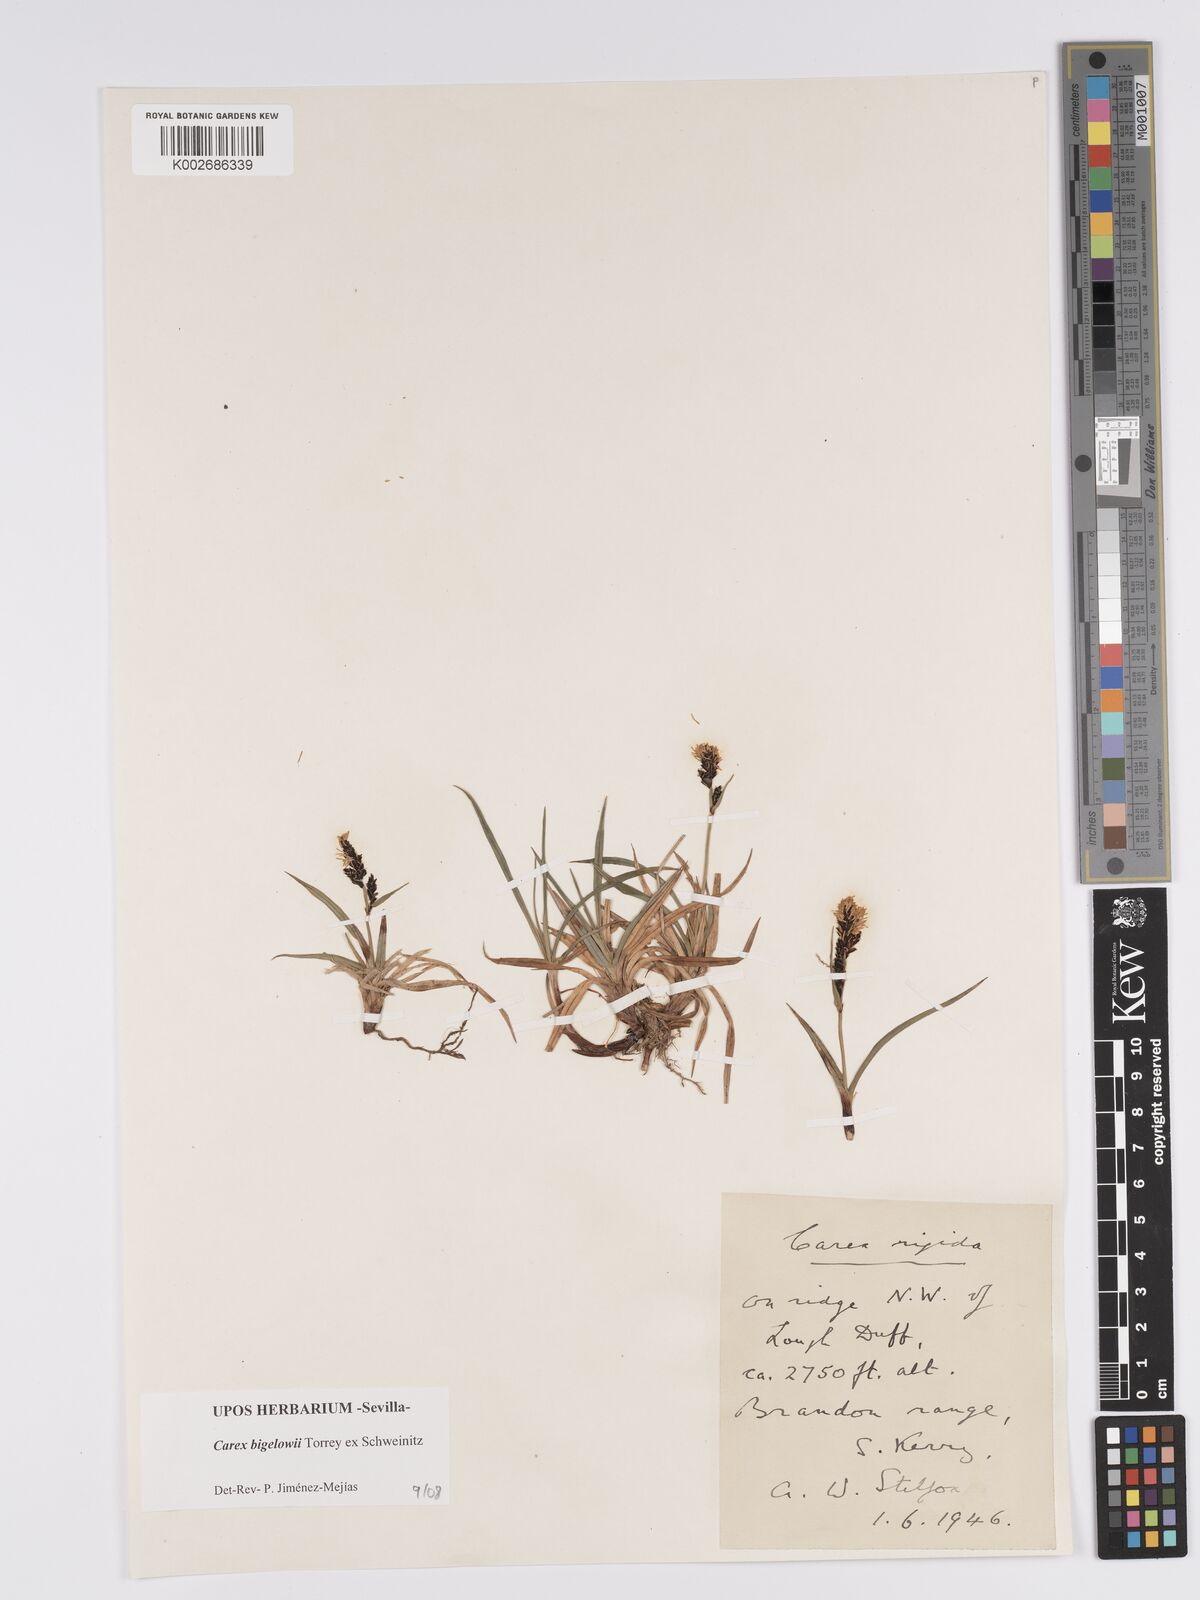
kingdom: Plantae
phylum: Tracheophyta
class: Liliopsida
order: Poales
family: Cyperaceae
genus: Carex
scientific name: Carex bigelowii
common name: Stiff sedge
